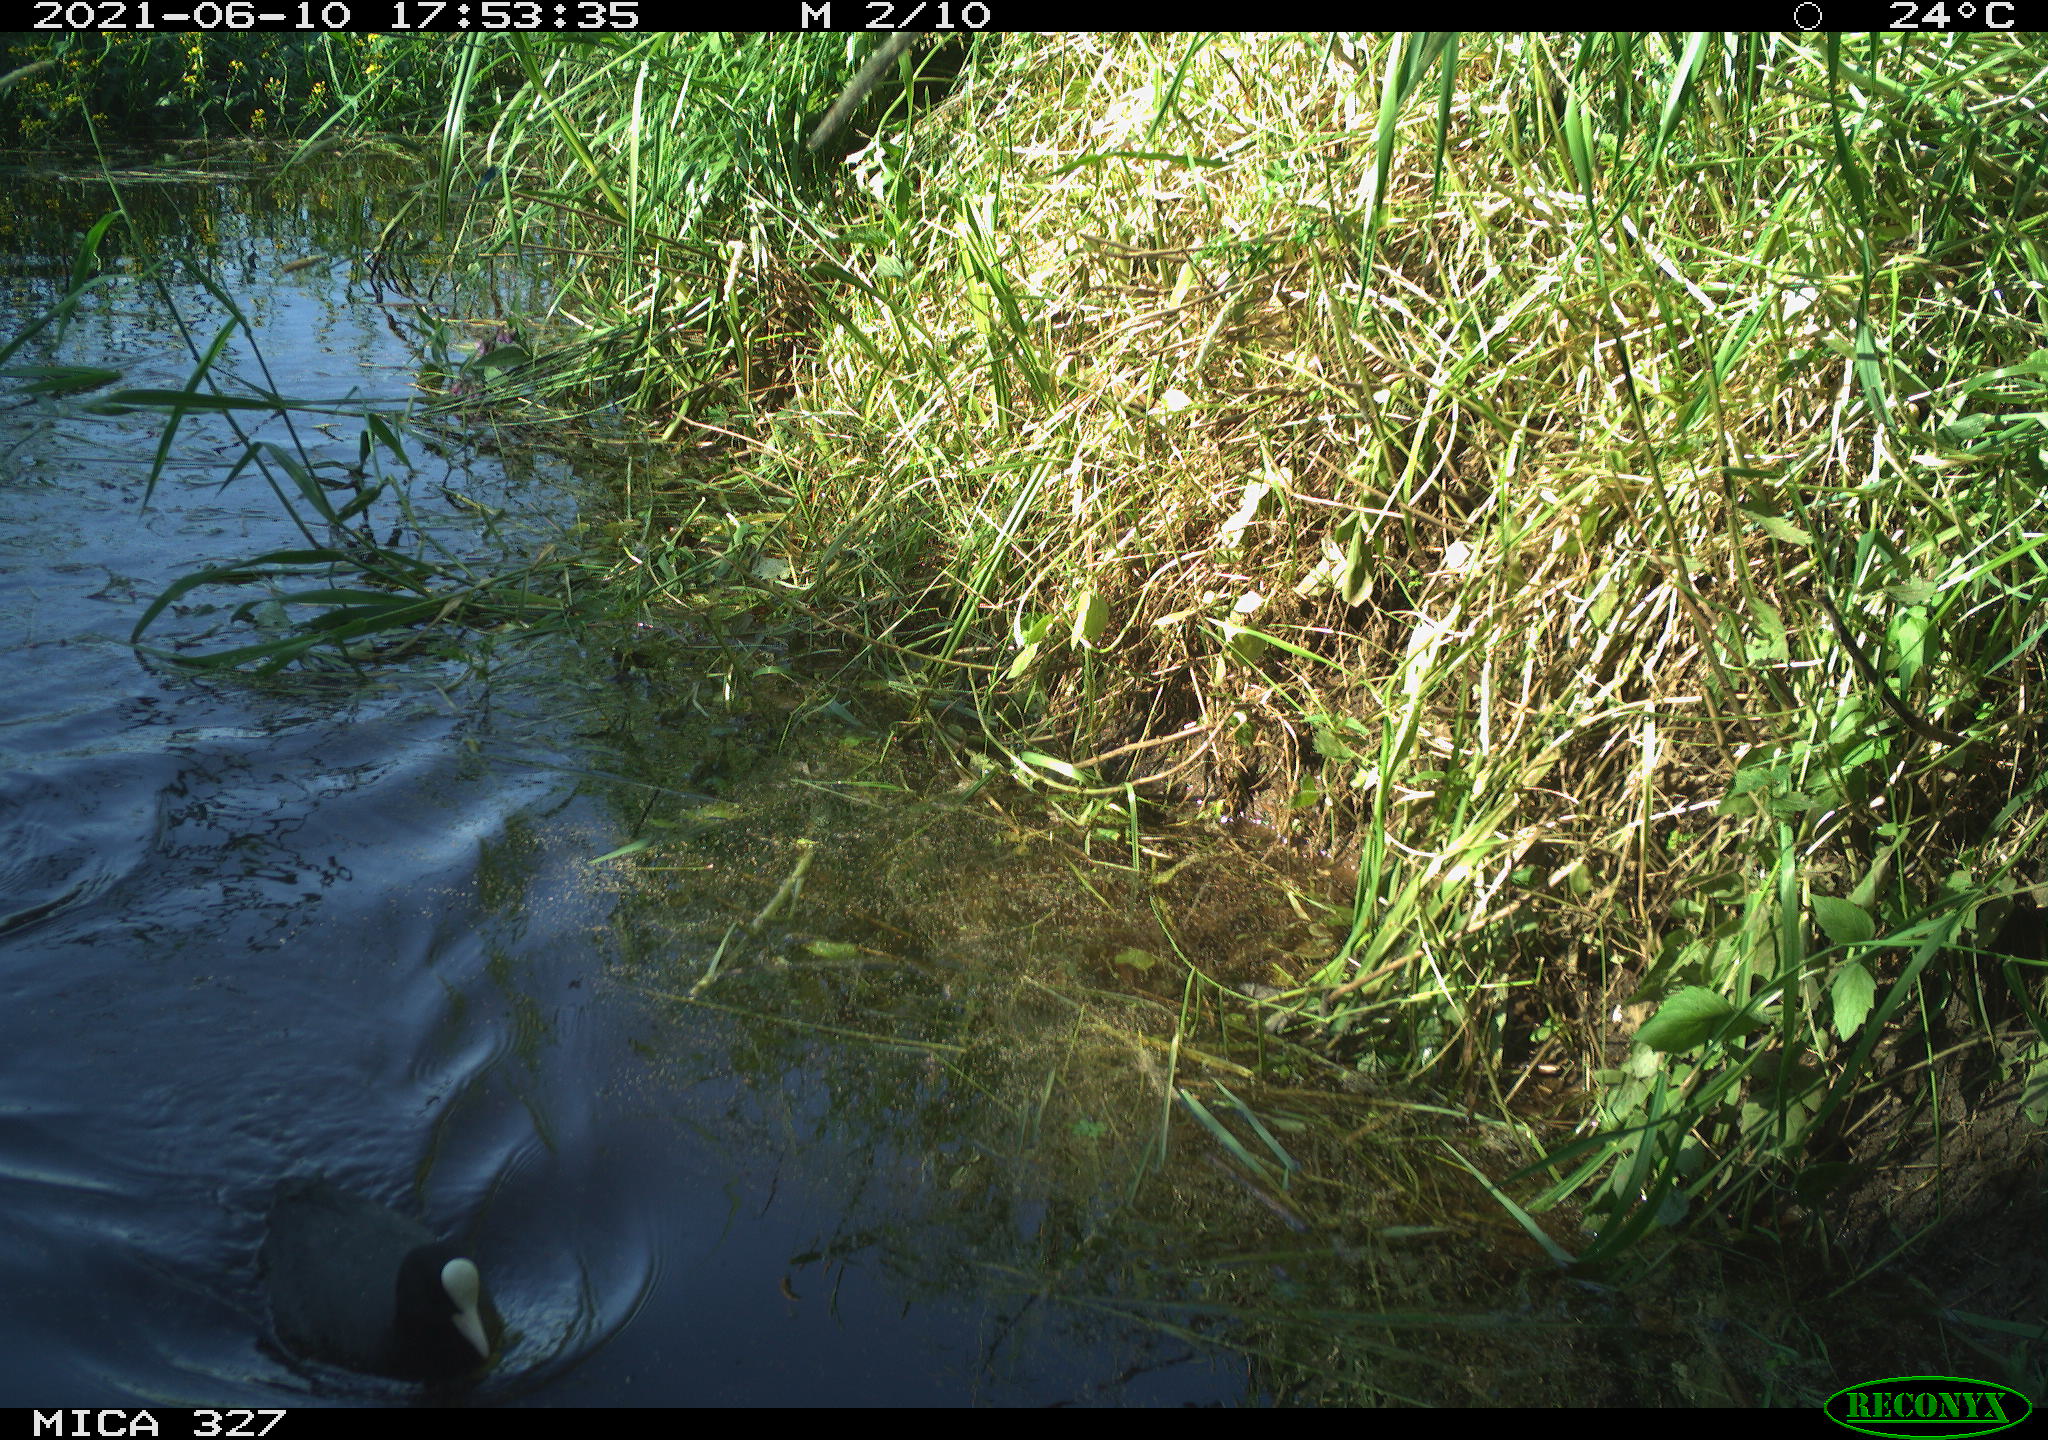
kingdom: Animalia
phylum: Chordata
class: Aves
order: Gruiformes
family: Rallidae
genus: Fulica
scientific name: Fulica atra
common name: Eurasian coot
